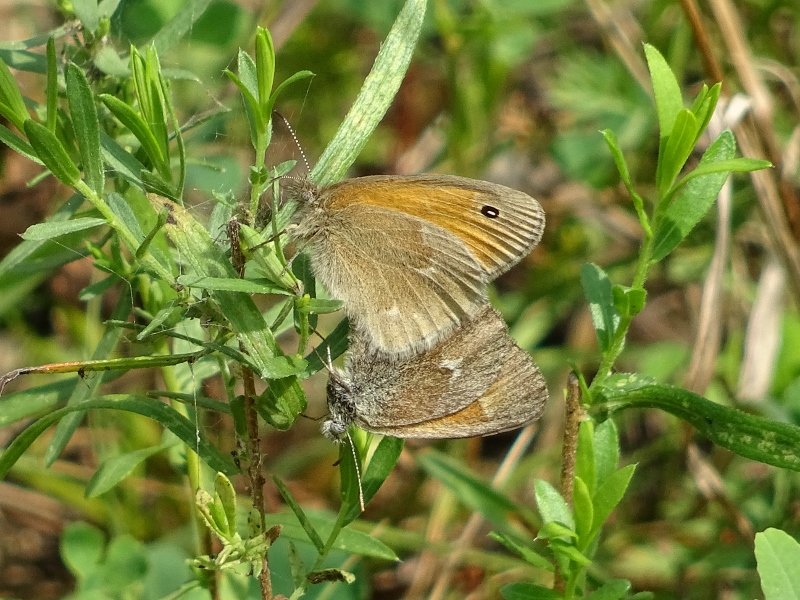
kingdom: Animalia
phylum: Arthropoda
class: Insecta
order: Lepidoptera
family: Nymphalidae
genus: Coenonympha
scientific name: Coenonympha tullia
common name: Large Heath
